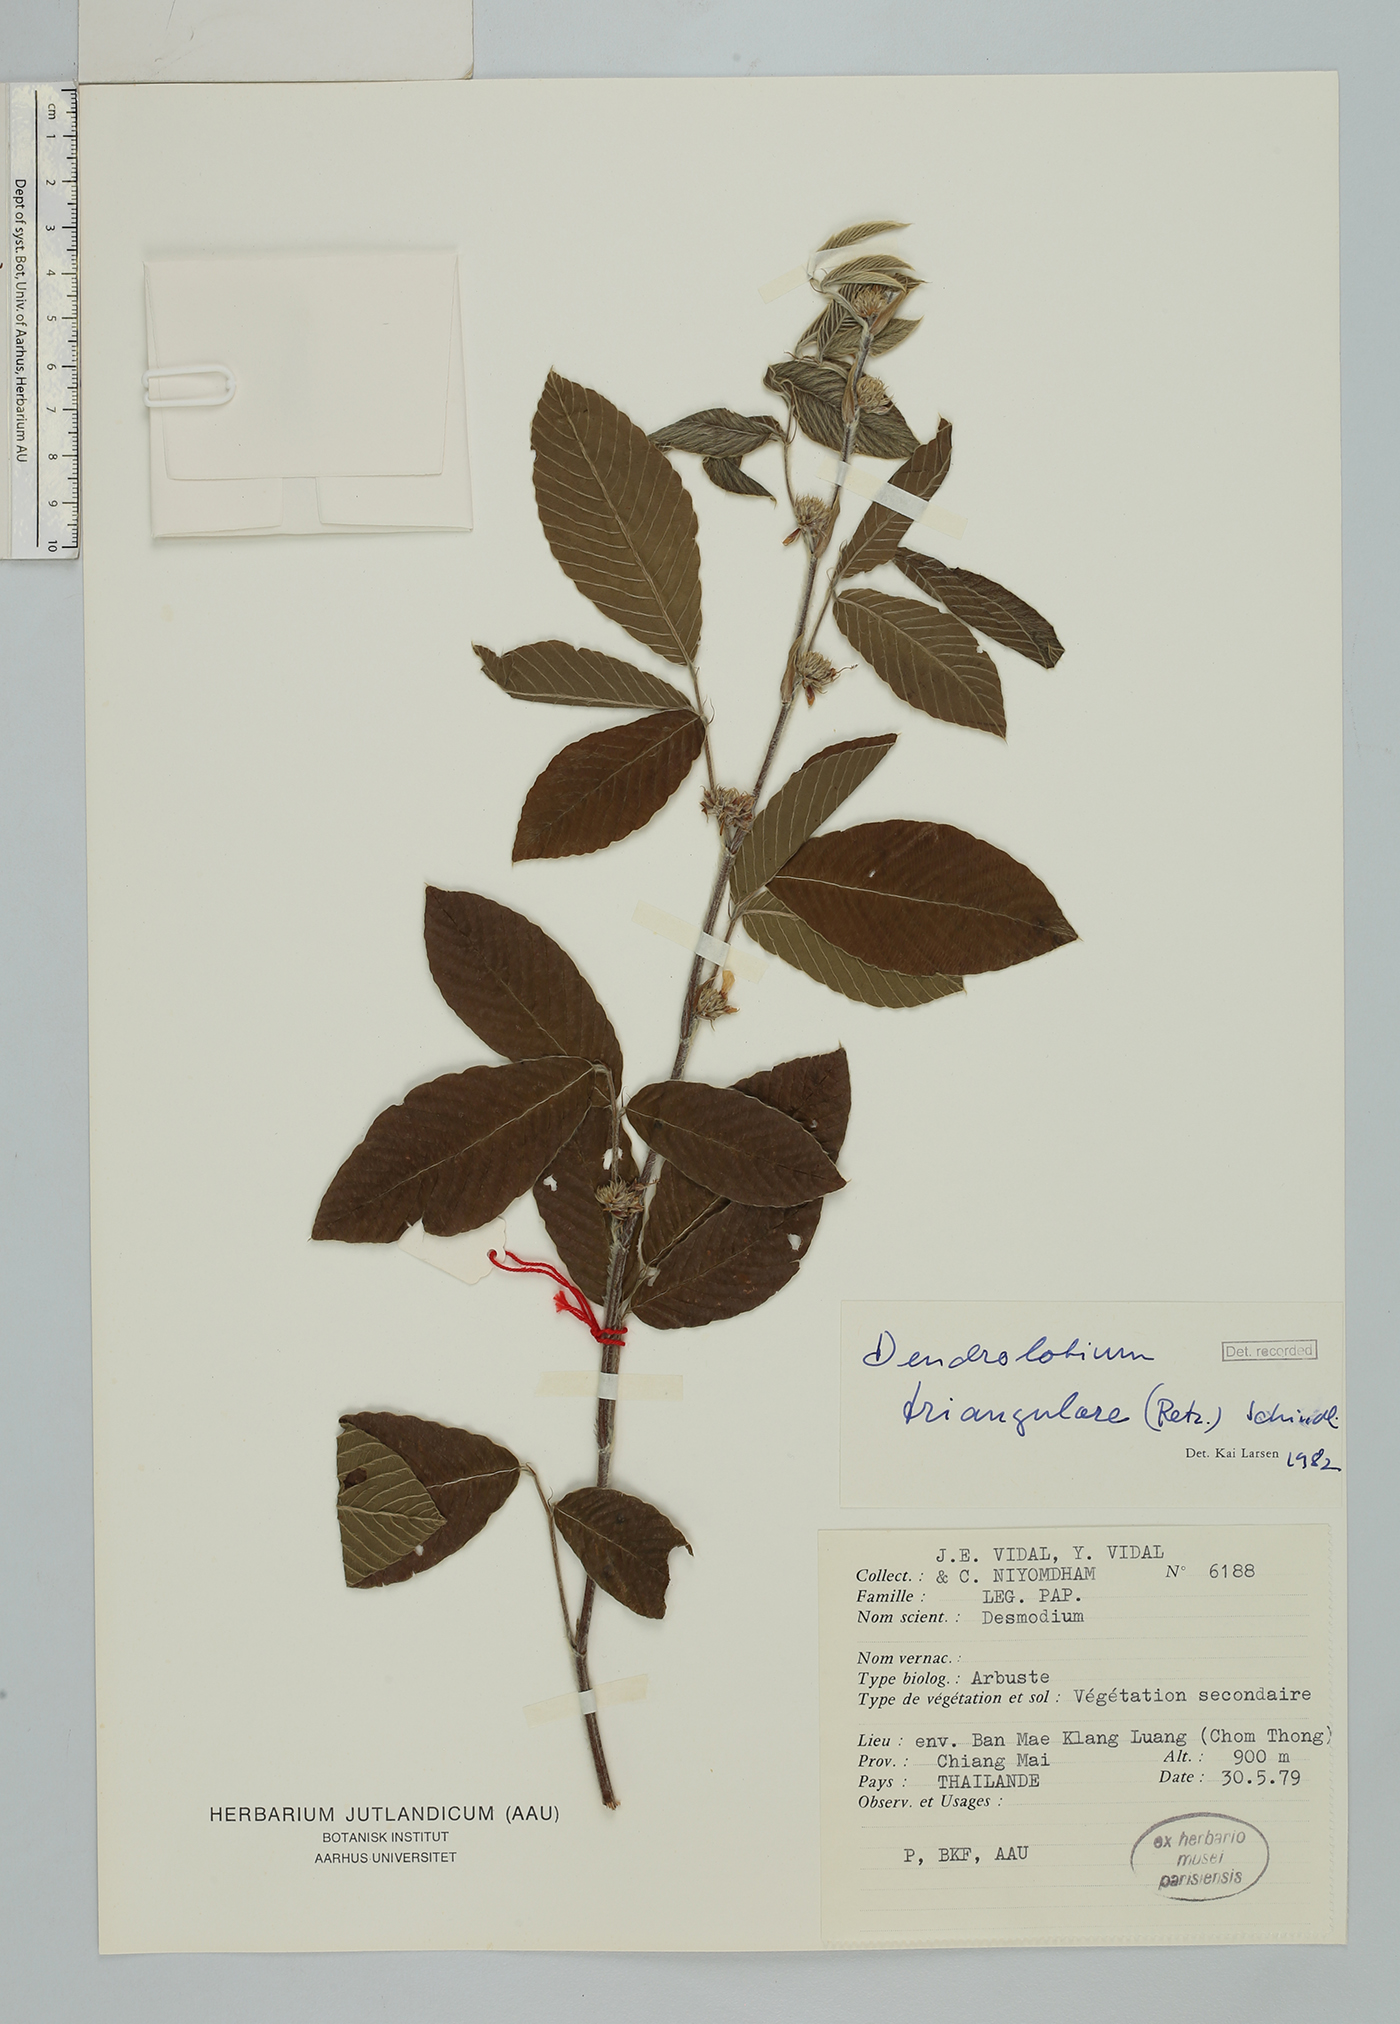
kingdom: Plantae
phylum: Tracheophyta
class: Magnoliopsida
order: Fabales
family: Fabaceae
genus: Dendrolobium
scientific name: Dendrolobium triangulare
